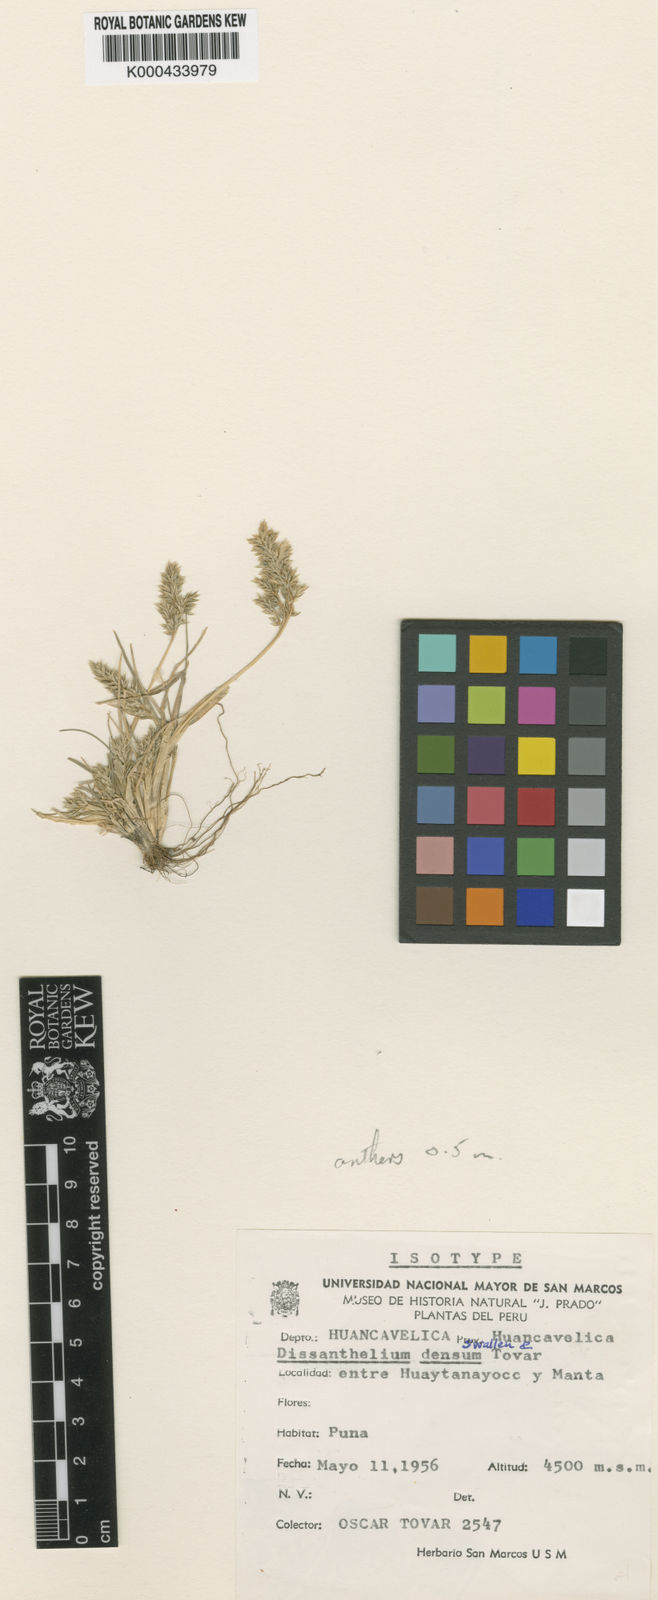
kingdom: Plantae
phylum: Tracheophyta
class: Liliopsida
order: Poales
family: Poaceae
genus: Poa
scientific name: Poa calycina
